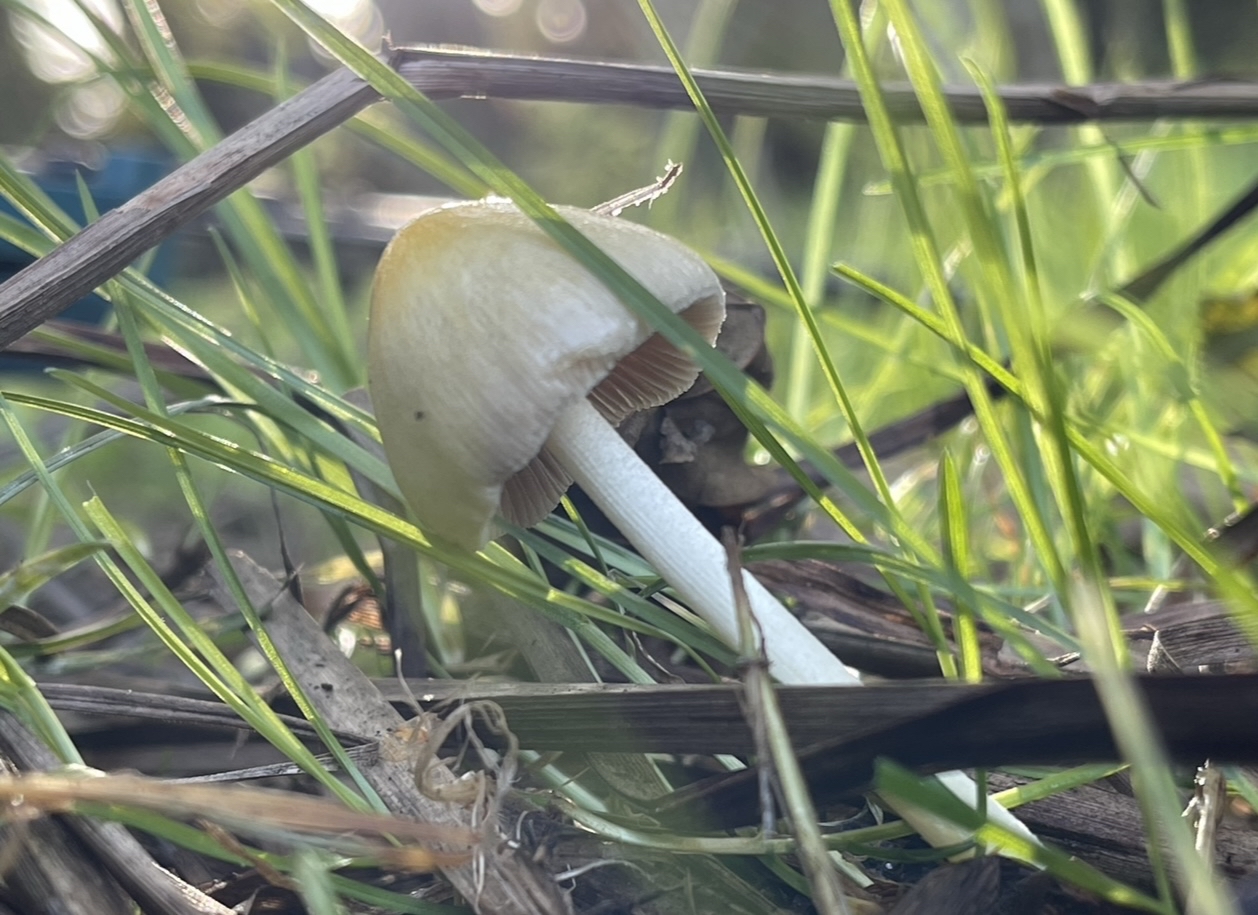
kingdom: Fungi
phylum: Basidiomycota
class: Agaricomycetes
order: Agaricales
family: Bolbitiaceae
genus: Bolbitius
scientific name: Bolbitius titubans
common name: almindelig gulhat
